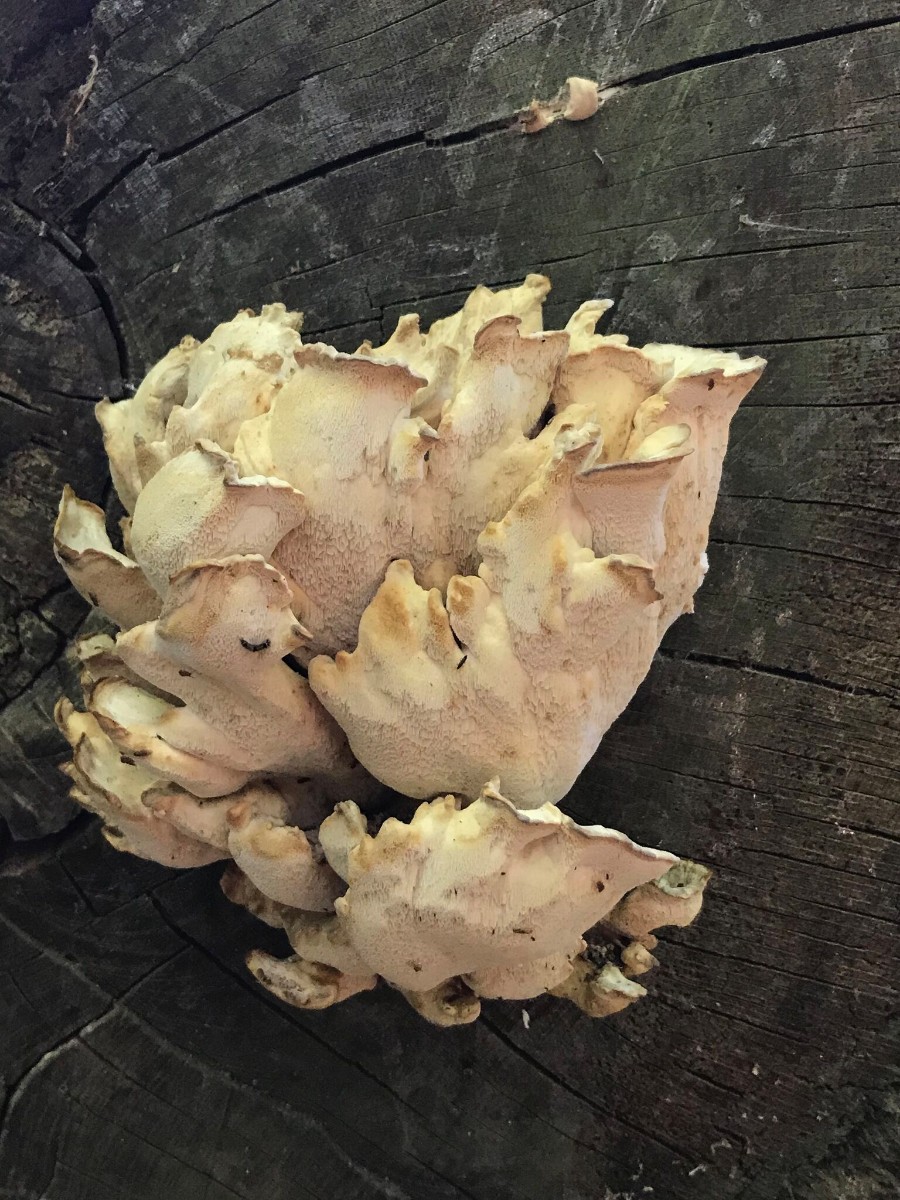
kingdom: Fungi
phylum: Basidiomycota
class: Agaricomycetes
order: Polyporales
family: Laetiporaceae
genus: Laetiporus
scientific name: Laetiporus sulphureus
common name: svovlporesvamp
